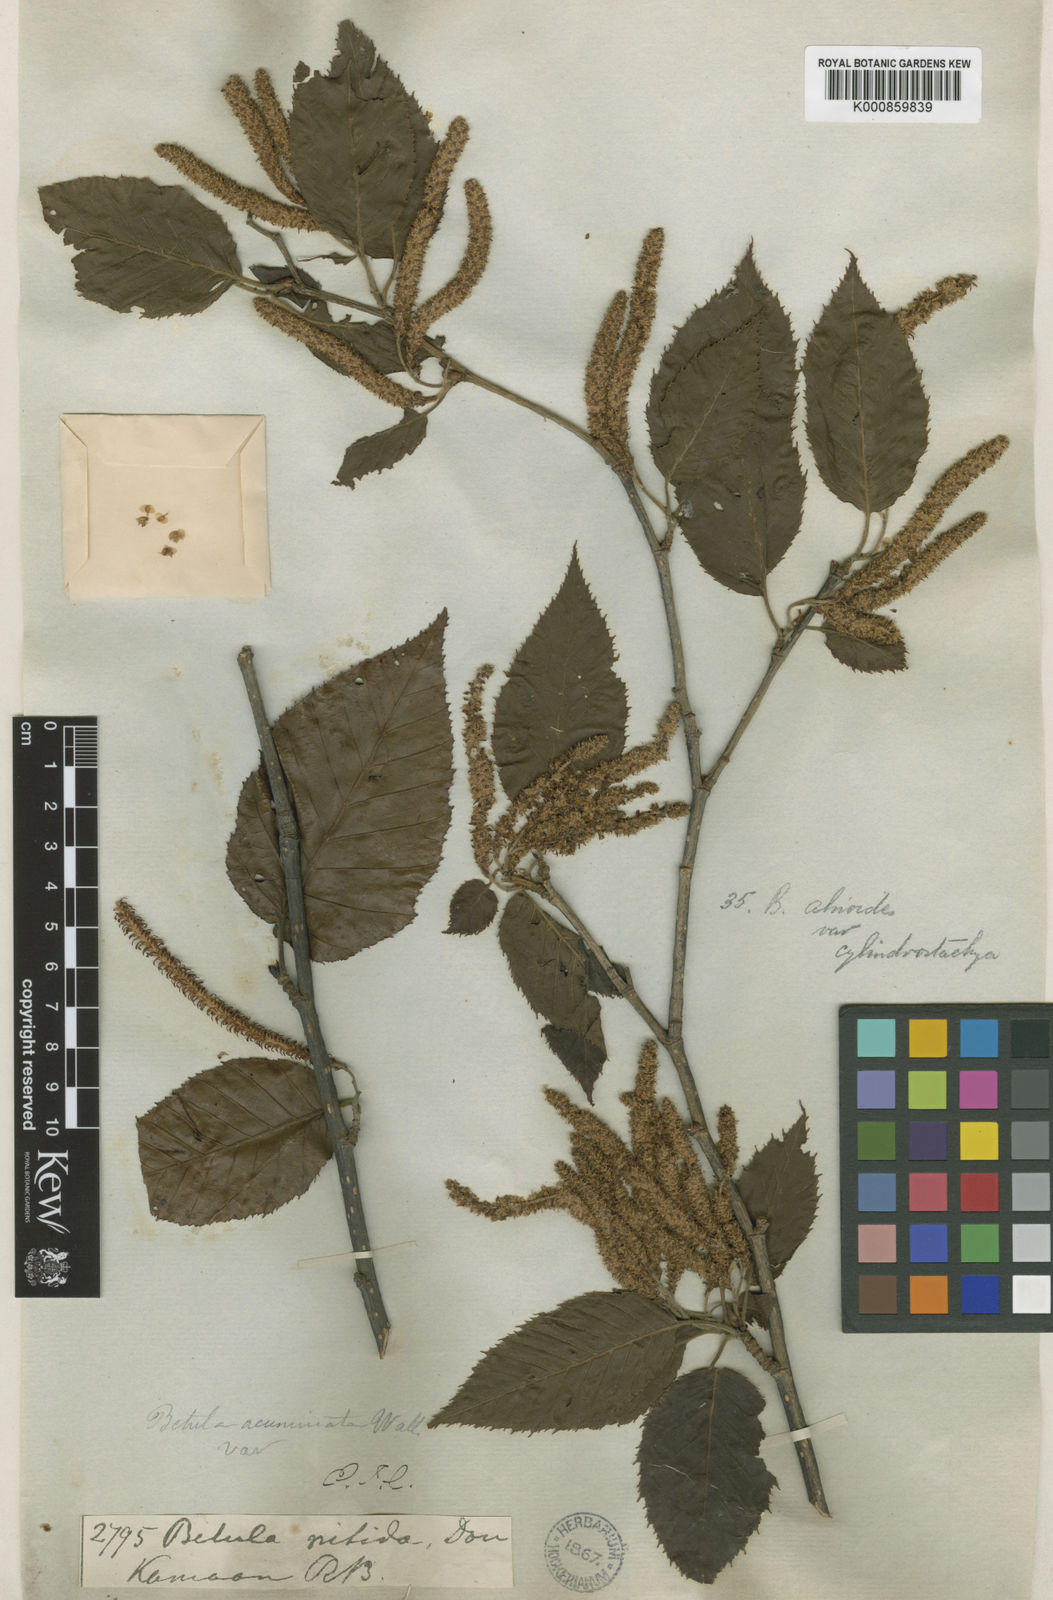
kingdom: Plantae
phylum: Tracheophyta
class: Magnoliopsida
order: Fagales
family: Betulaceae
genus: Betula
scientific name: Betula alnoides
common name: Indian birch
